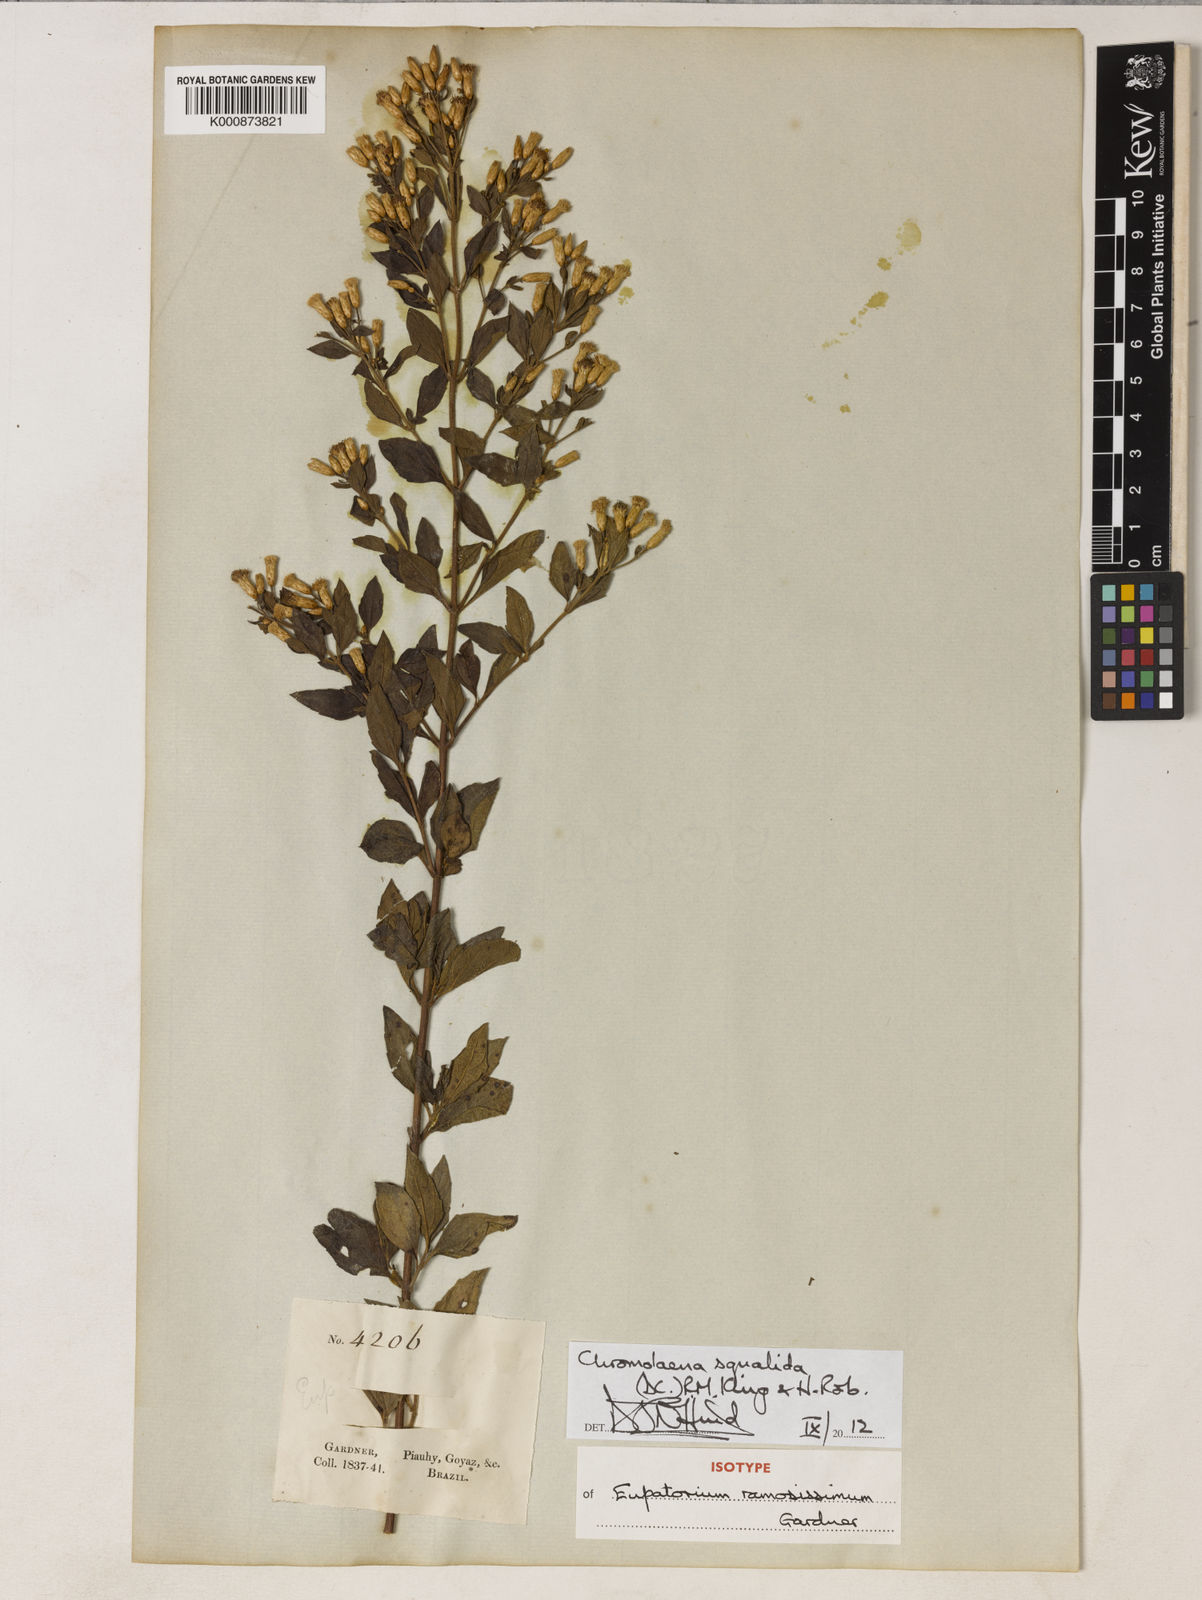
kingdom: Plantae
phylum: Tracheophyta
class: Magnoliopsida
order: Asterales
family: Asteraceae
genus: Chromolaena
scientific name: Chromolaena squalida
